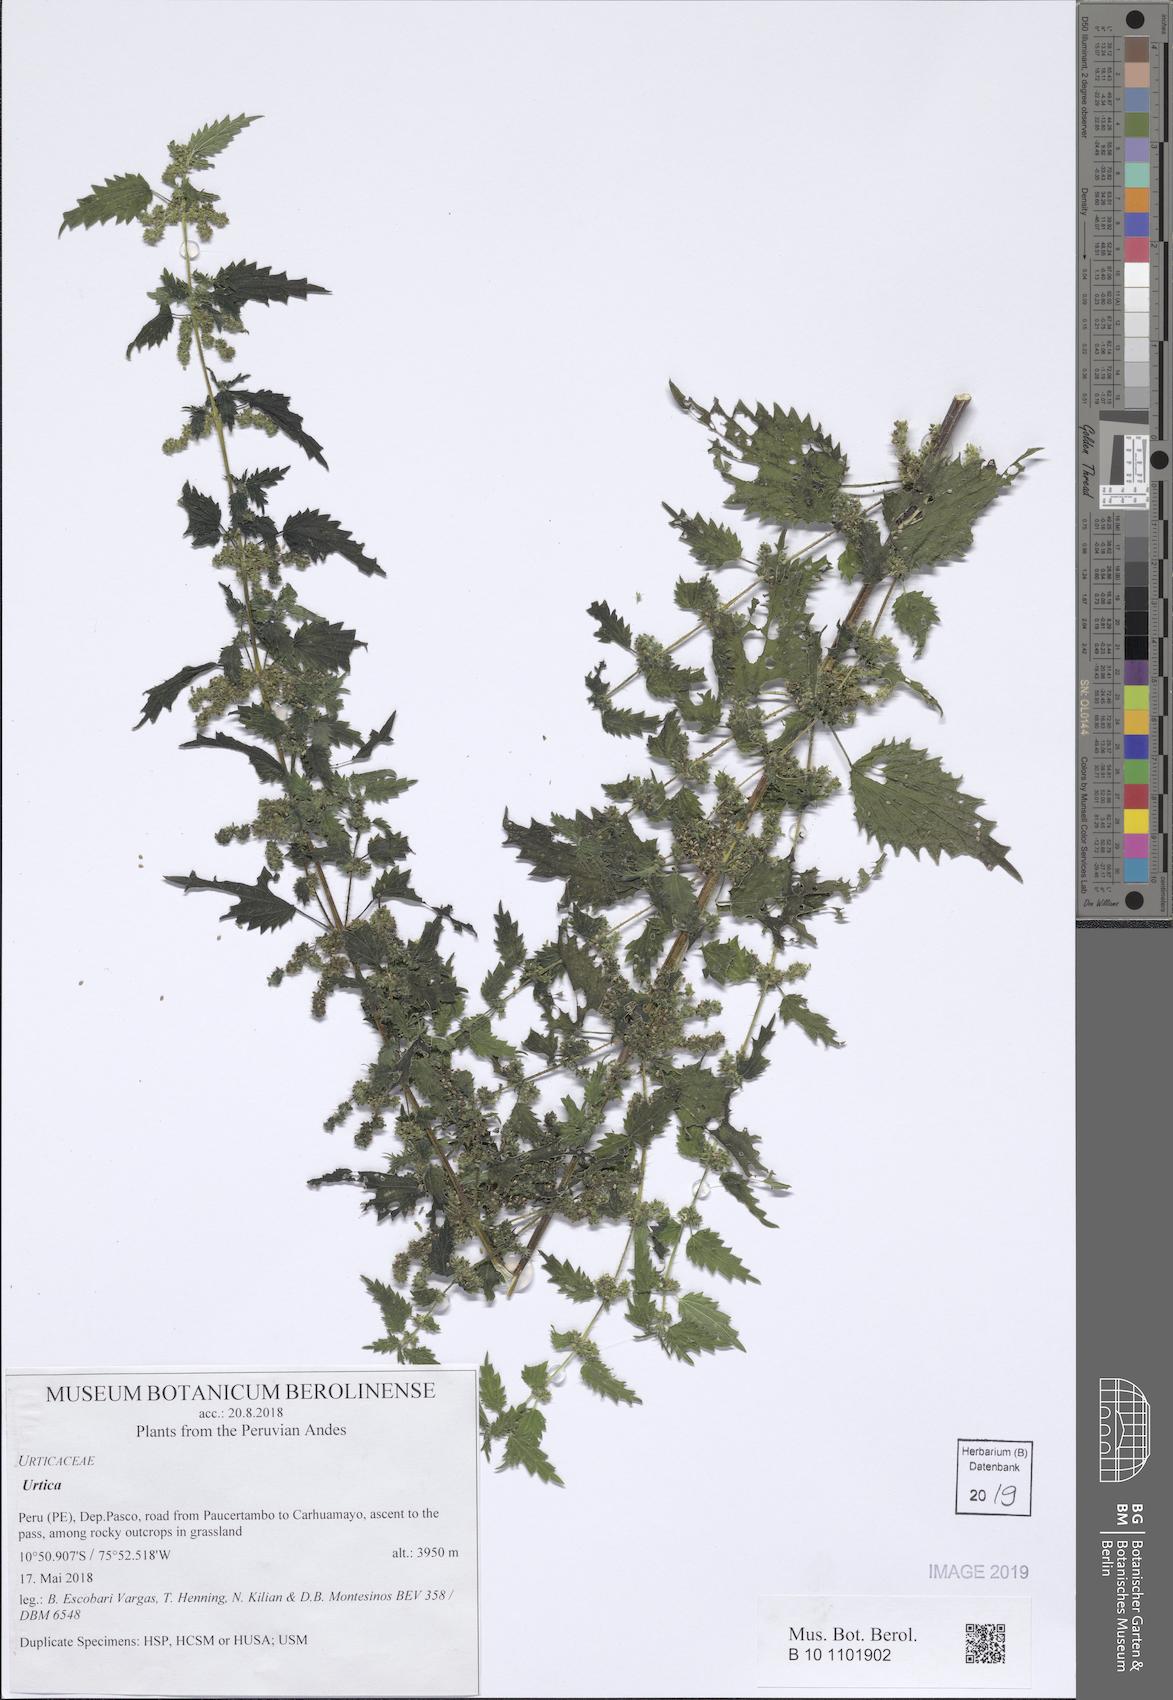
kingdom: Plantae
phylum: Tracheophyta
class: Magnoliopsida
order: Rosales
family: Urticaceae
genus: Urtica
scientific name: Urtica
